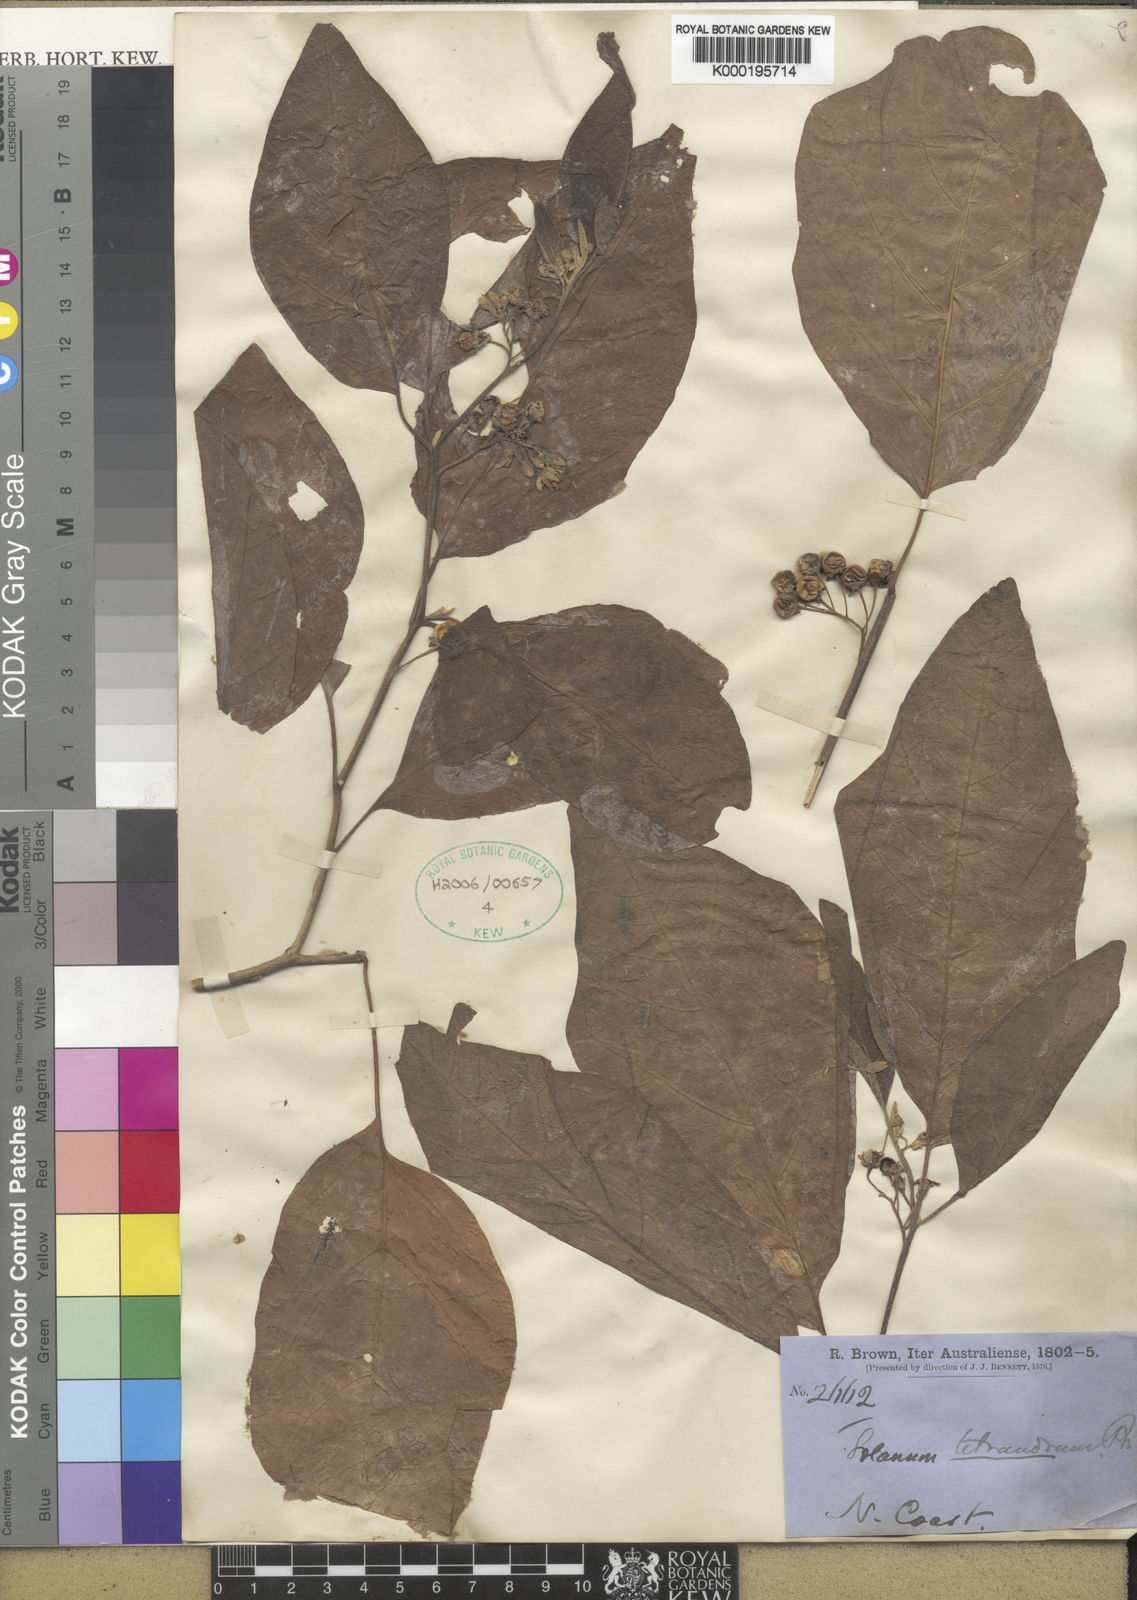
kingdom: Plantae
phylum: Tracheophyta
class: Magnoliopsida
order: Solanales
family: Solanaceae
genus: Solanum
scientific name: Solanum tetrandrum
